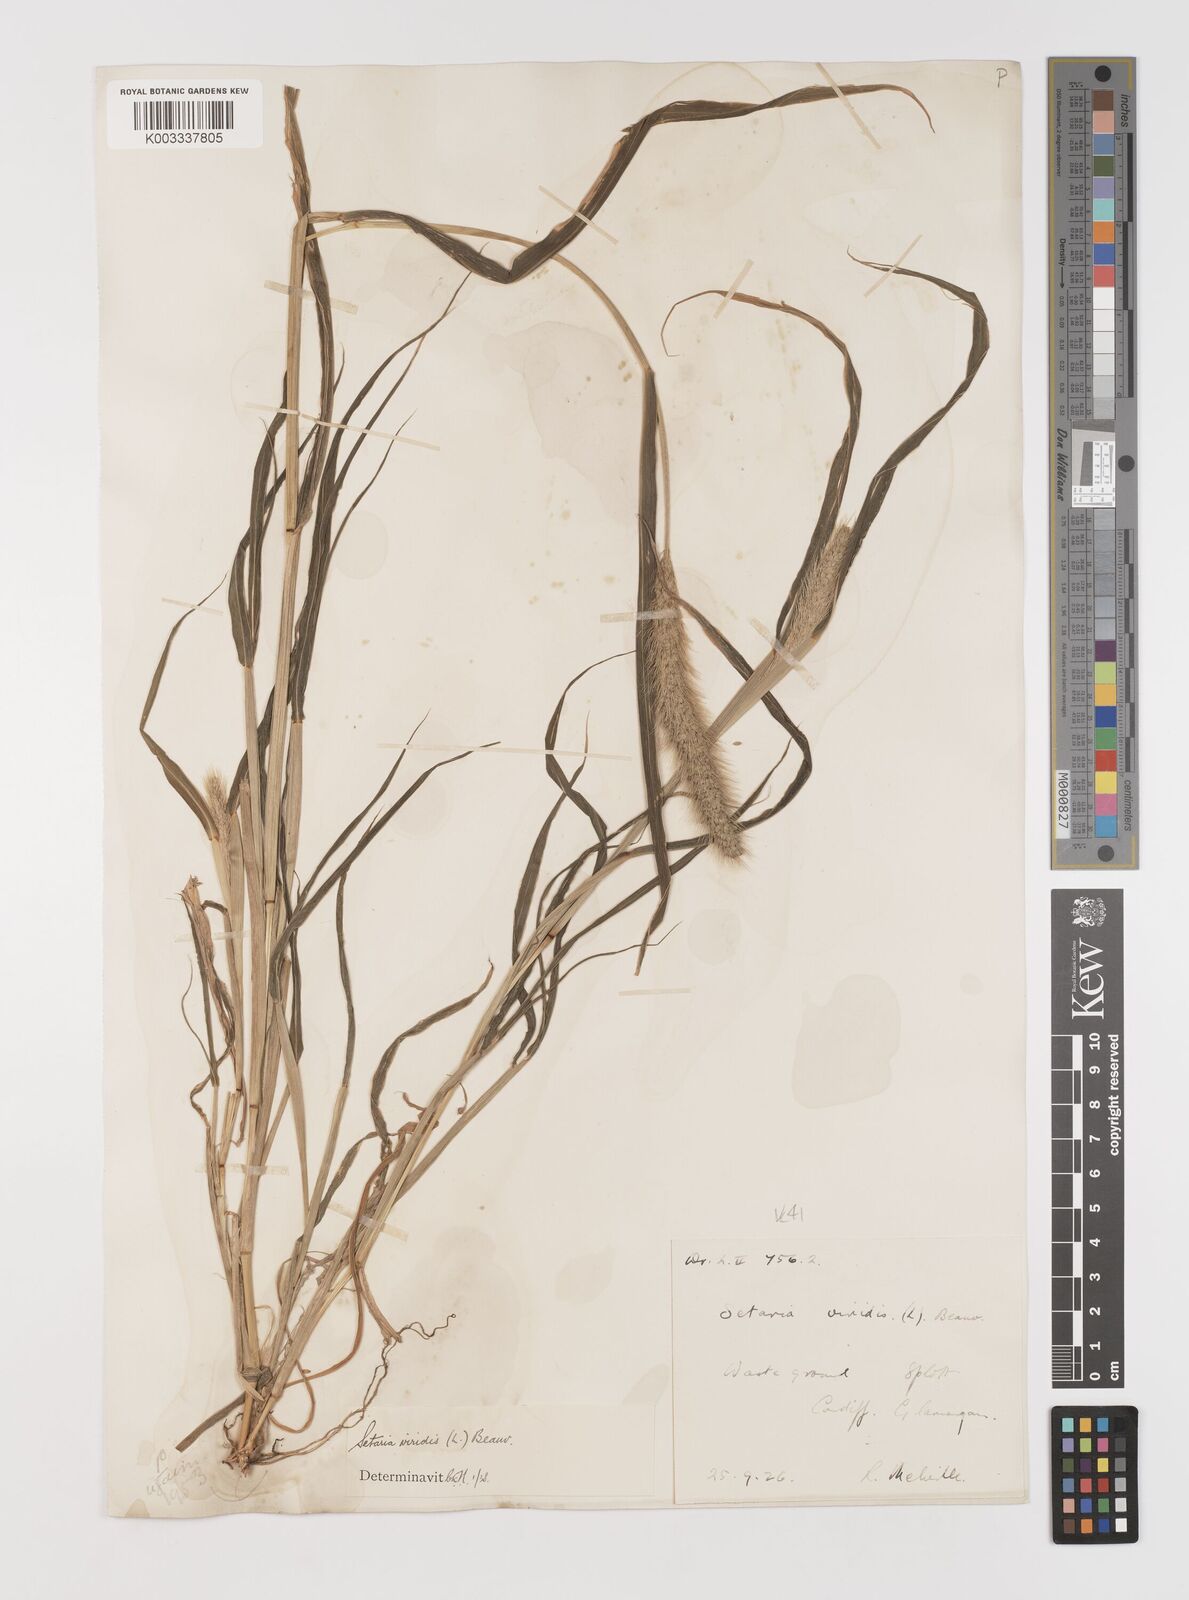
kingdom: Plantae
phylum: Tracheophyta
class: Liliopsida
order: Poales
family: Poaceae
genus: Setaria
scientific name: Setaria viridis
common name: Green bristlegrass
